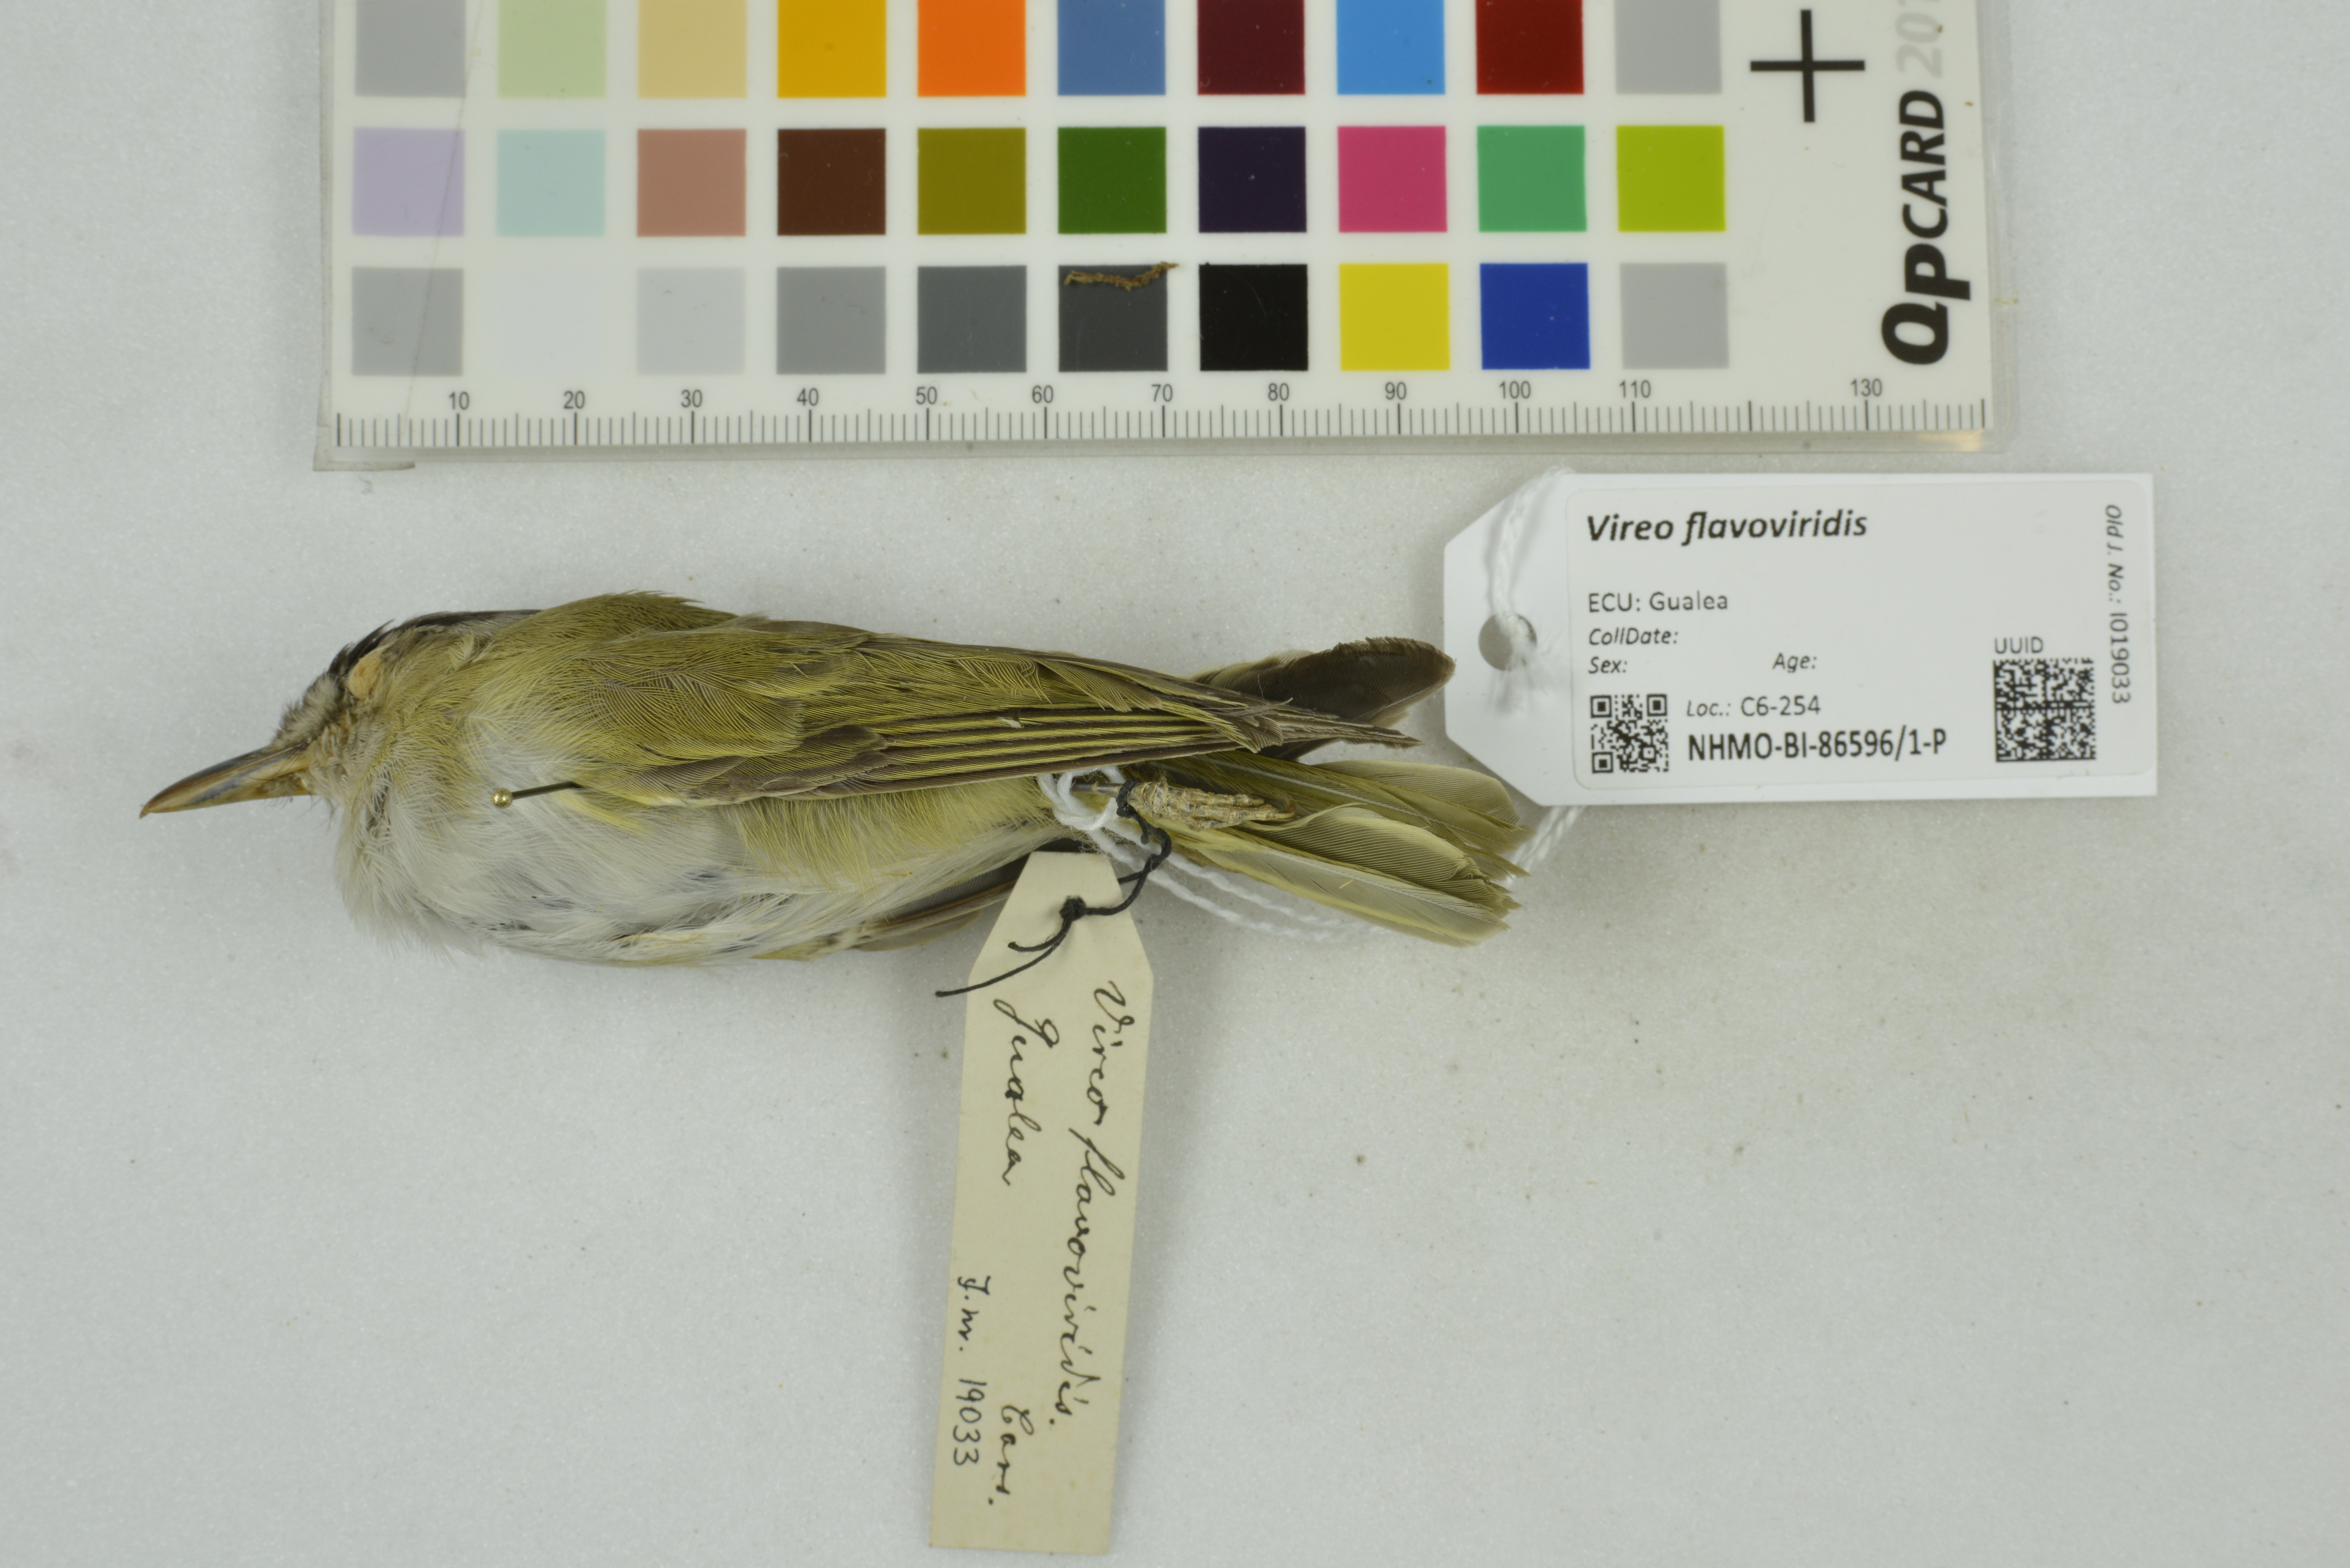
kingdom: Animalia
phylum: Chordata
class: Aves
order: Passeriformes
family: Vireonidae
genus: Vireo
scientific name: Vireo flavoviridis
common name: Yellow-green vireo
